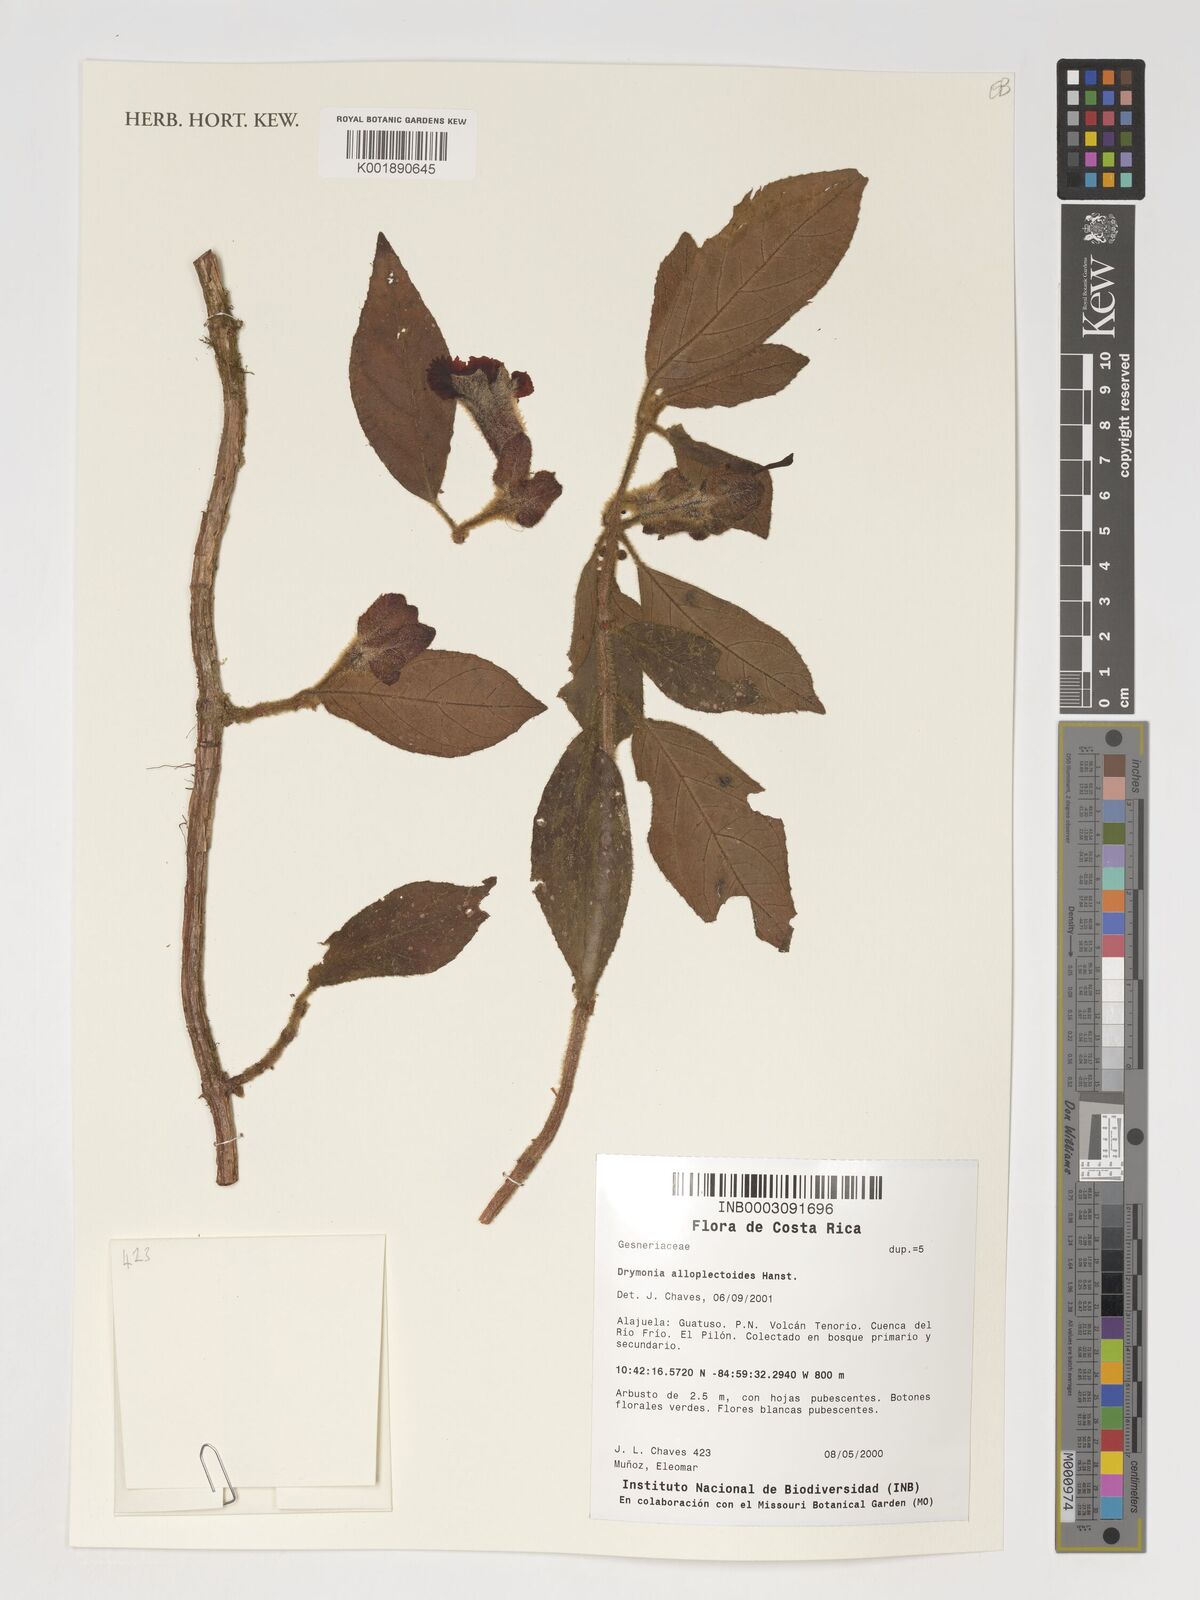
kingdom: Plantae
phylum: Tracheophyta
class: Magnoliopsida
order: Lamiales
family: Gesneriaceae
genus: Drymonia
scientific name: Drymonia alloplectoides
